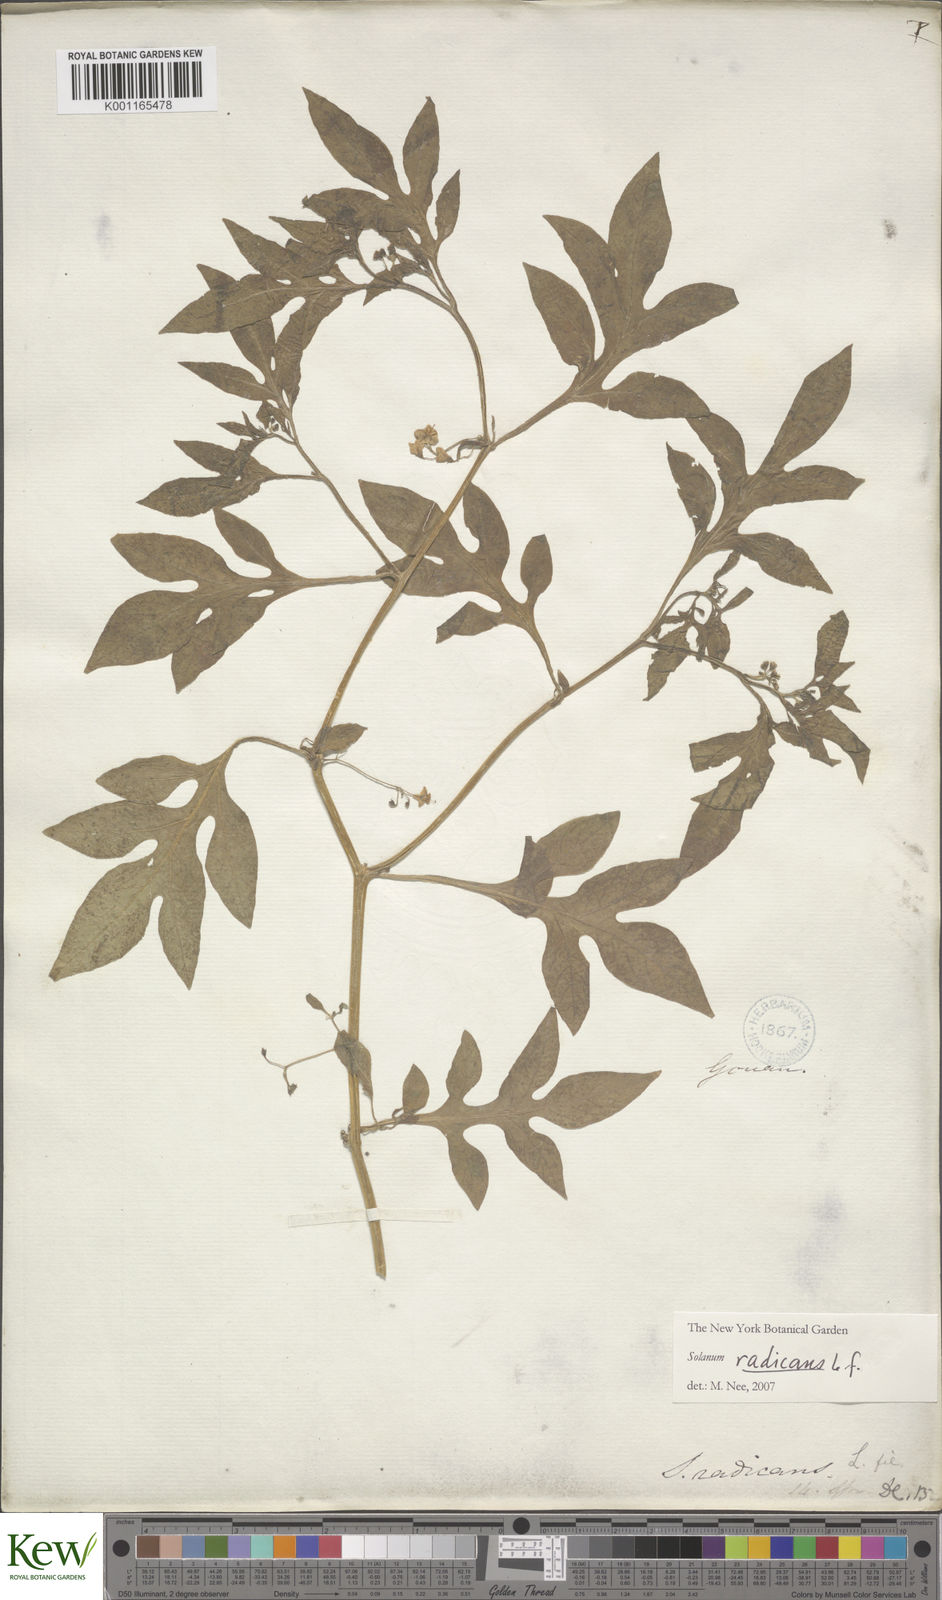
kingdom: Plantae
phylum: Tracheophyta
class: Magnoliopsida
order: Solanales
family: Solanaceae
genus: Solanum
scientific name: Solanum radicans
